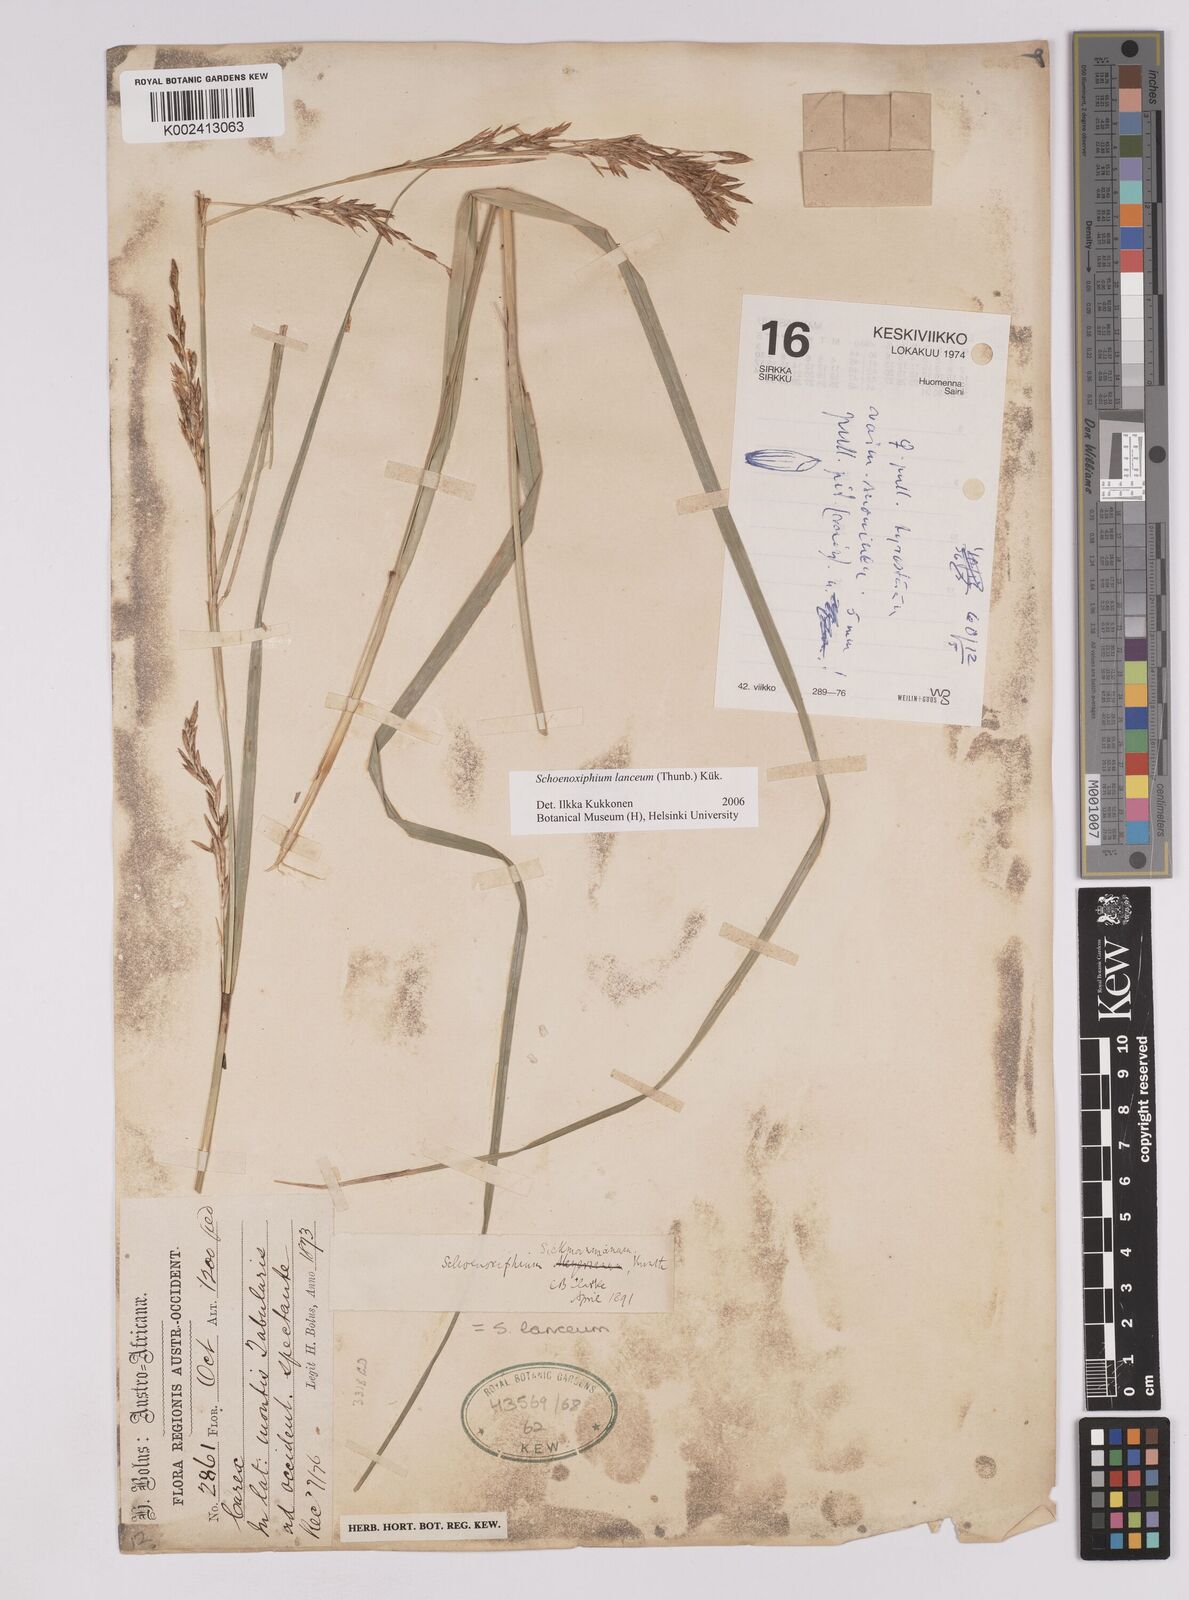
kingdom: Plantae
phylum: Tracheophyta
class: Liliopsida
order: Poales
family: Cyperaceae
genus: Carex
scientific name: Carex lancea
